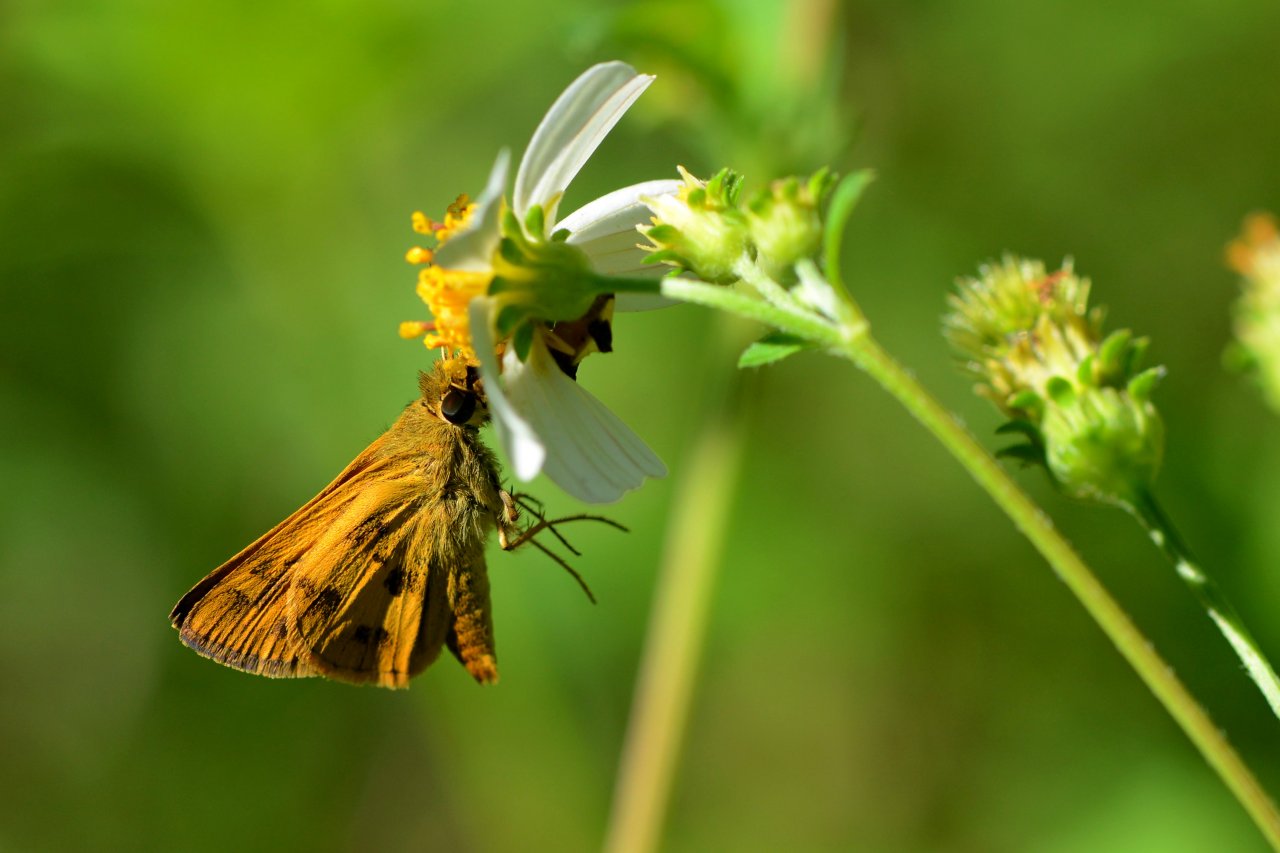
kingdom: Animalia
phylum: Arthropoda
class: Insecta
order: Lepidoptera
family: Hesperiidae
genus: Polites
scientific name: Polites vibex
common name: Whirlabout
